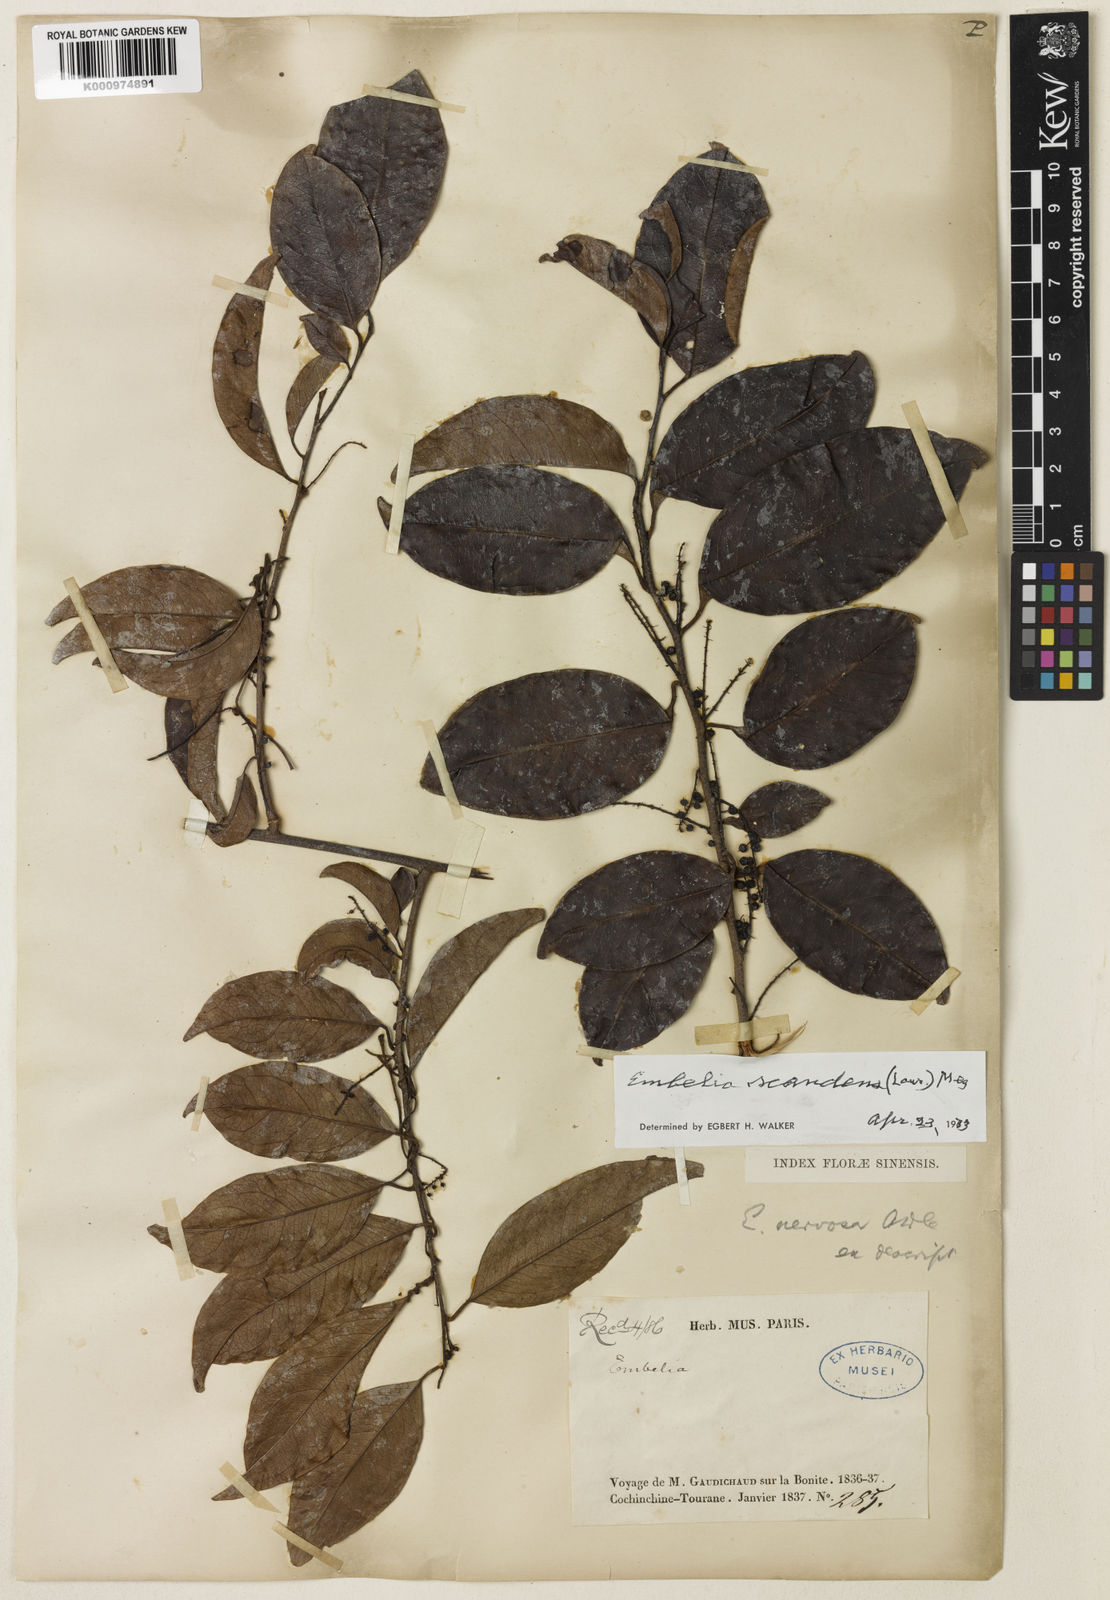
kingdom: Plantae
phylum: Tracheophyta
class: Magnoliopsida
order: Ericales
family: Primulaceae
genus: Embelia
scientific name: Embelia scandens
